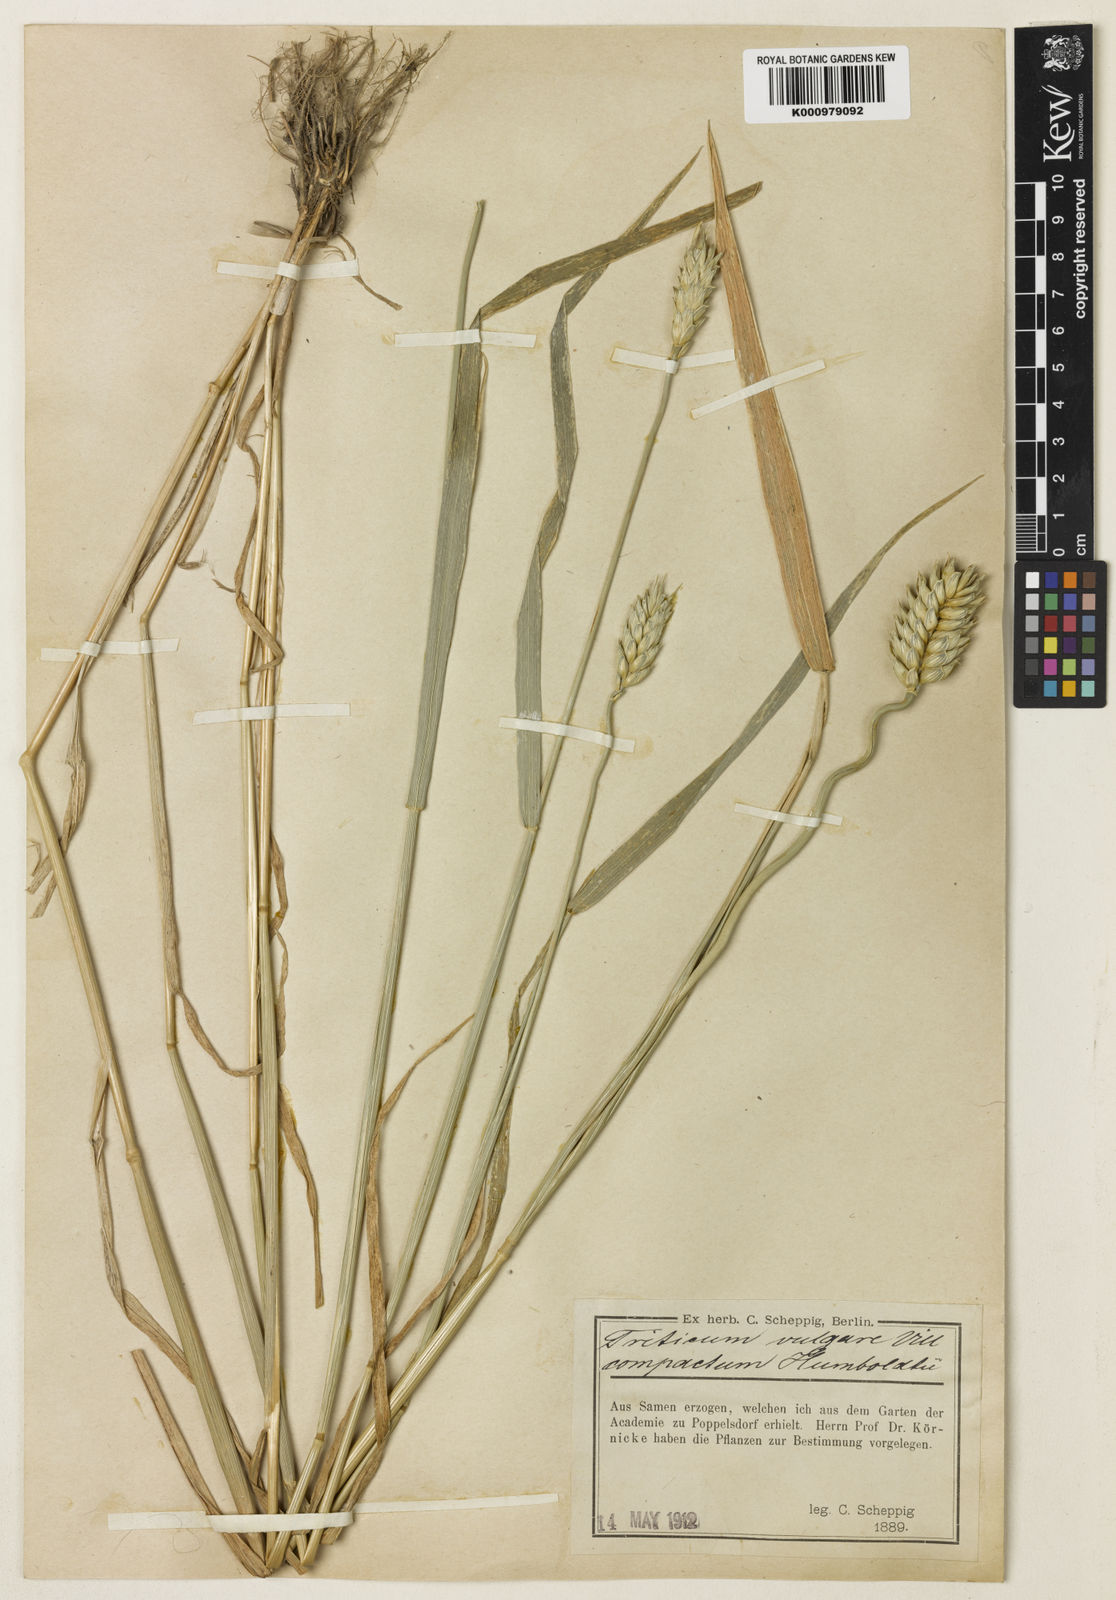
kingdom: Plantae
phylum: Tracheophyta
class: Liliopsida
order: Poales
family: Poaceae
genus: Triticum
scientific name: Triticum aestivum
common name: Common wheat
